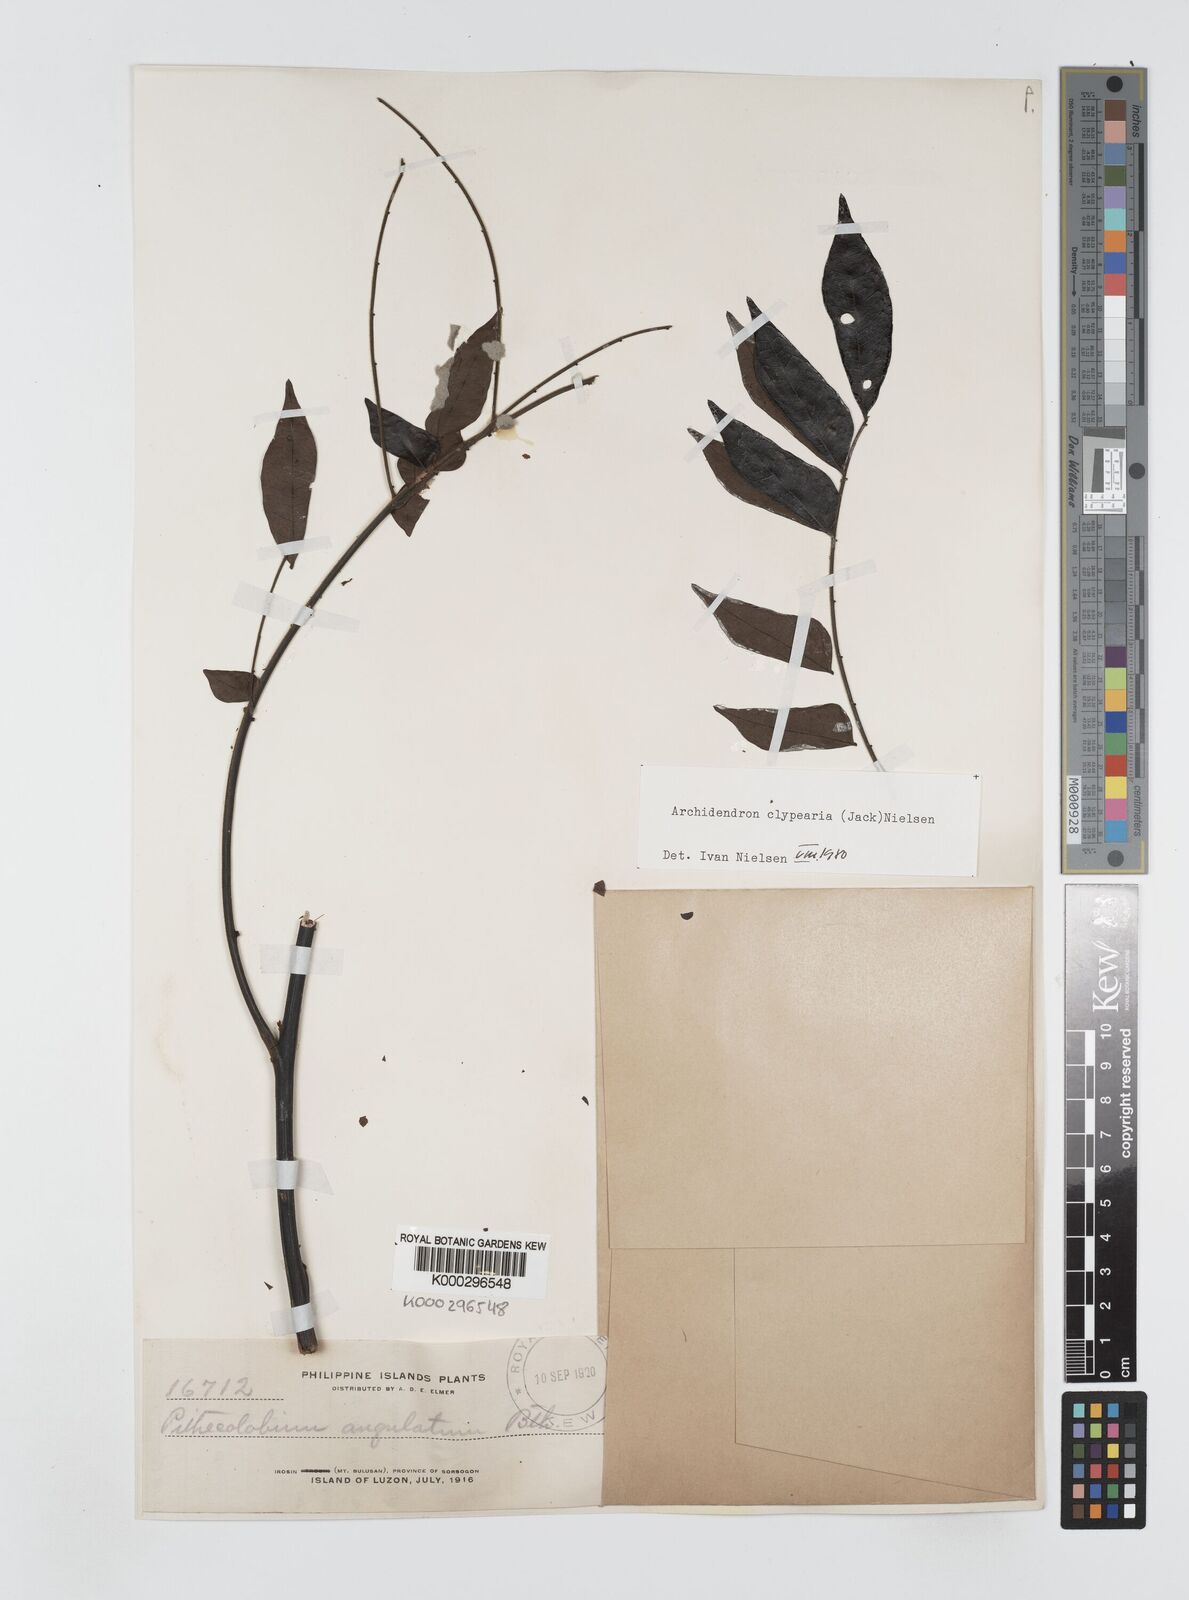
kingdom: Plantae
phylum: Tracheophyta
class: Magnoliopsida
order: Fabales
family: Fabaceae
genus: Archidendron
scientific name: Archidendron clypearia
